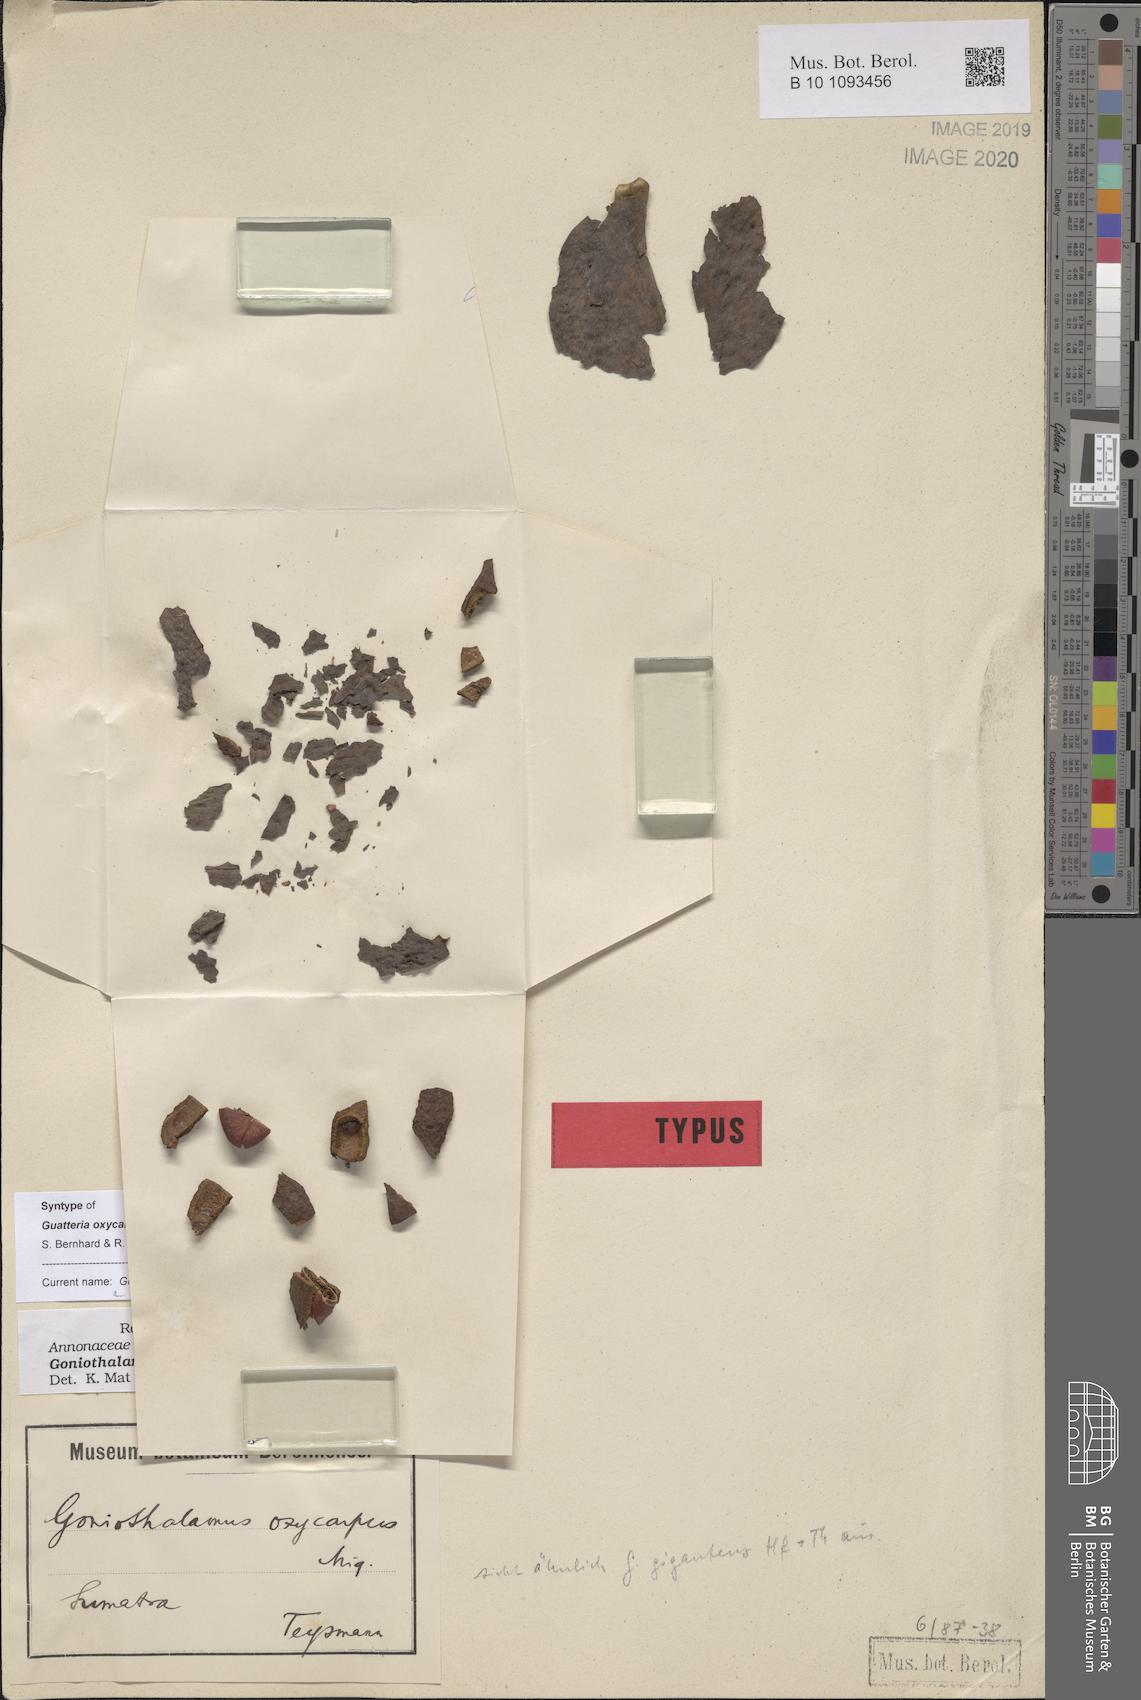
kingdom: Plantae
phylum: Tracheophyta
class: Magnoliopsida
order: Magnoliales
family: Annonaceae
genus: Goniothalamus
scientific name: Goniothalamus giganteus
